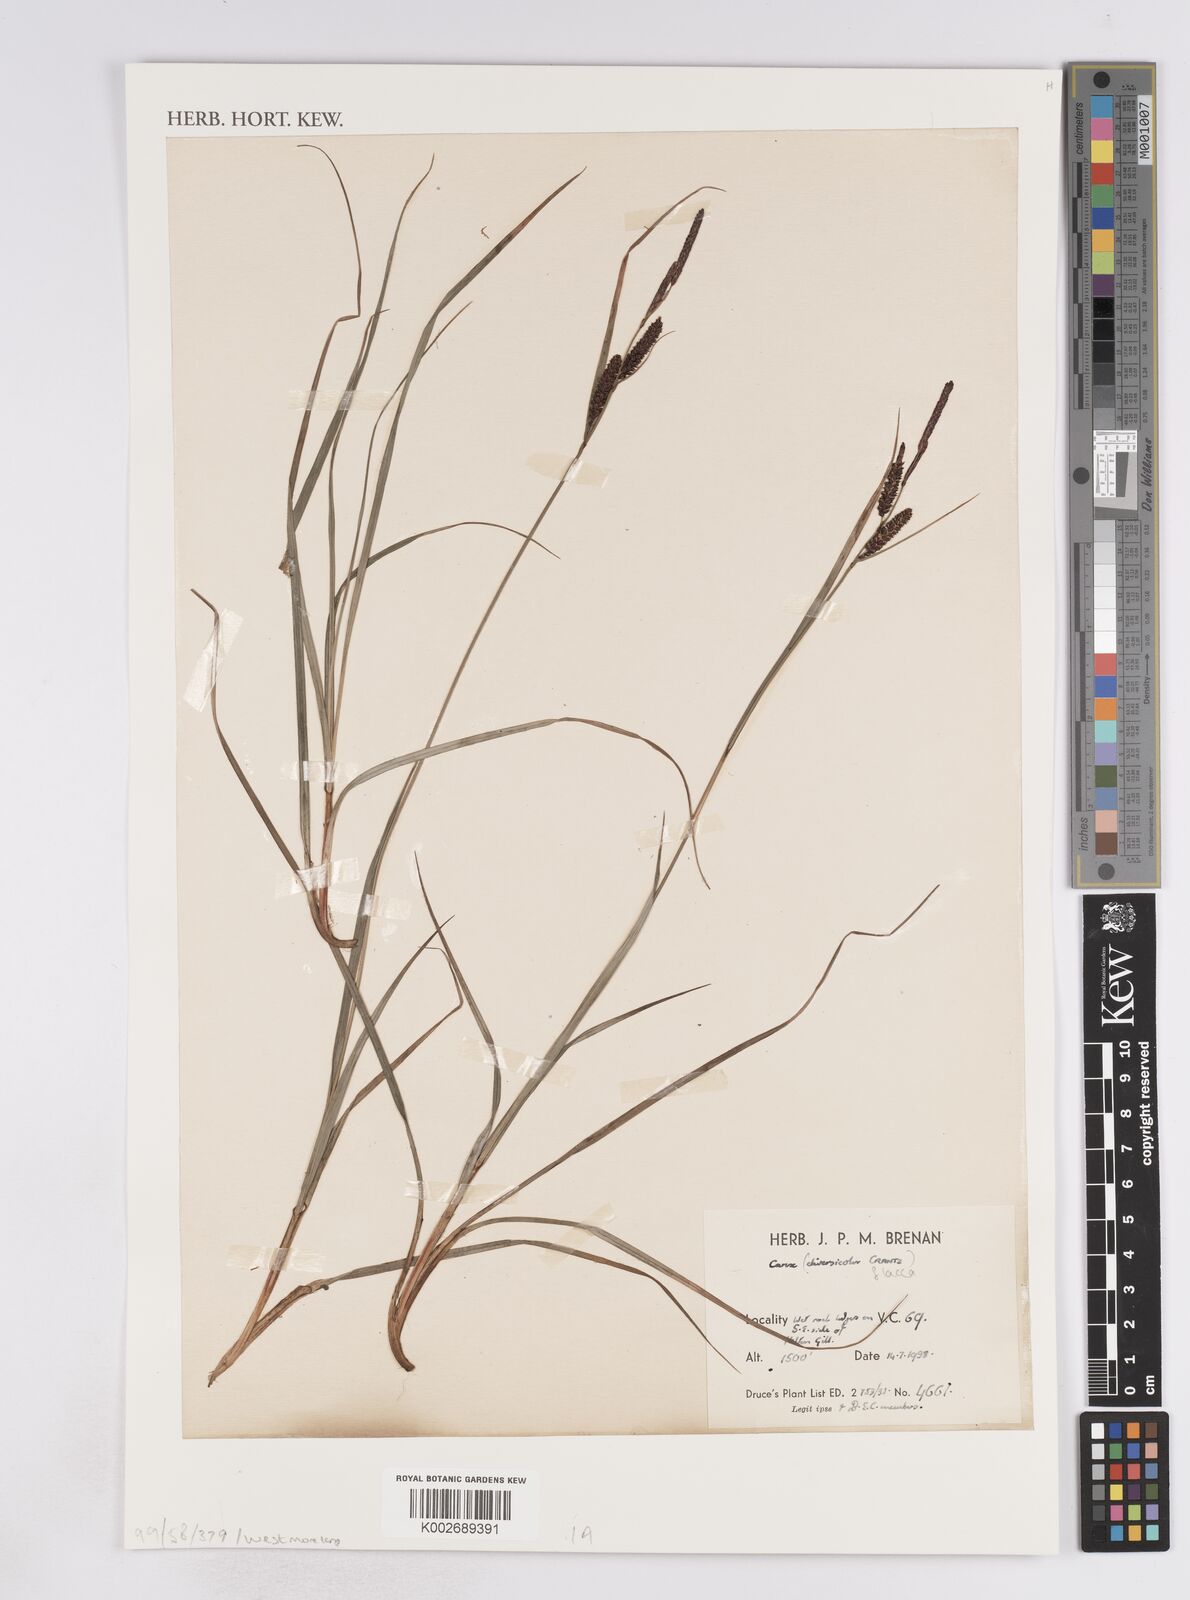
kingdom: Plantae
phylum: Tracheophyta
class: Liliopsida
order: Poales
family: Cyperaceae
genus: Carex
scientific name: Carex flacca
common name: Glaucous sedge
